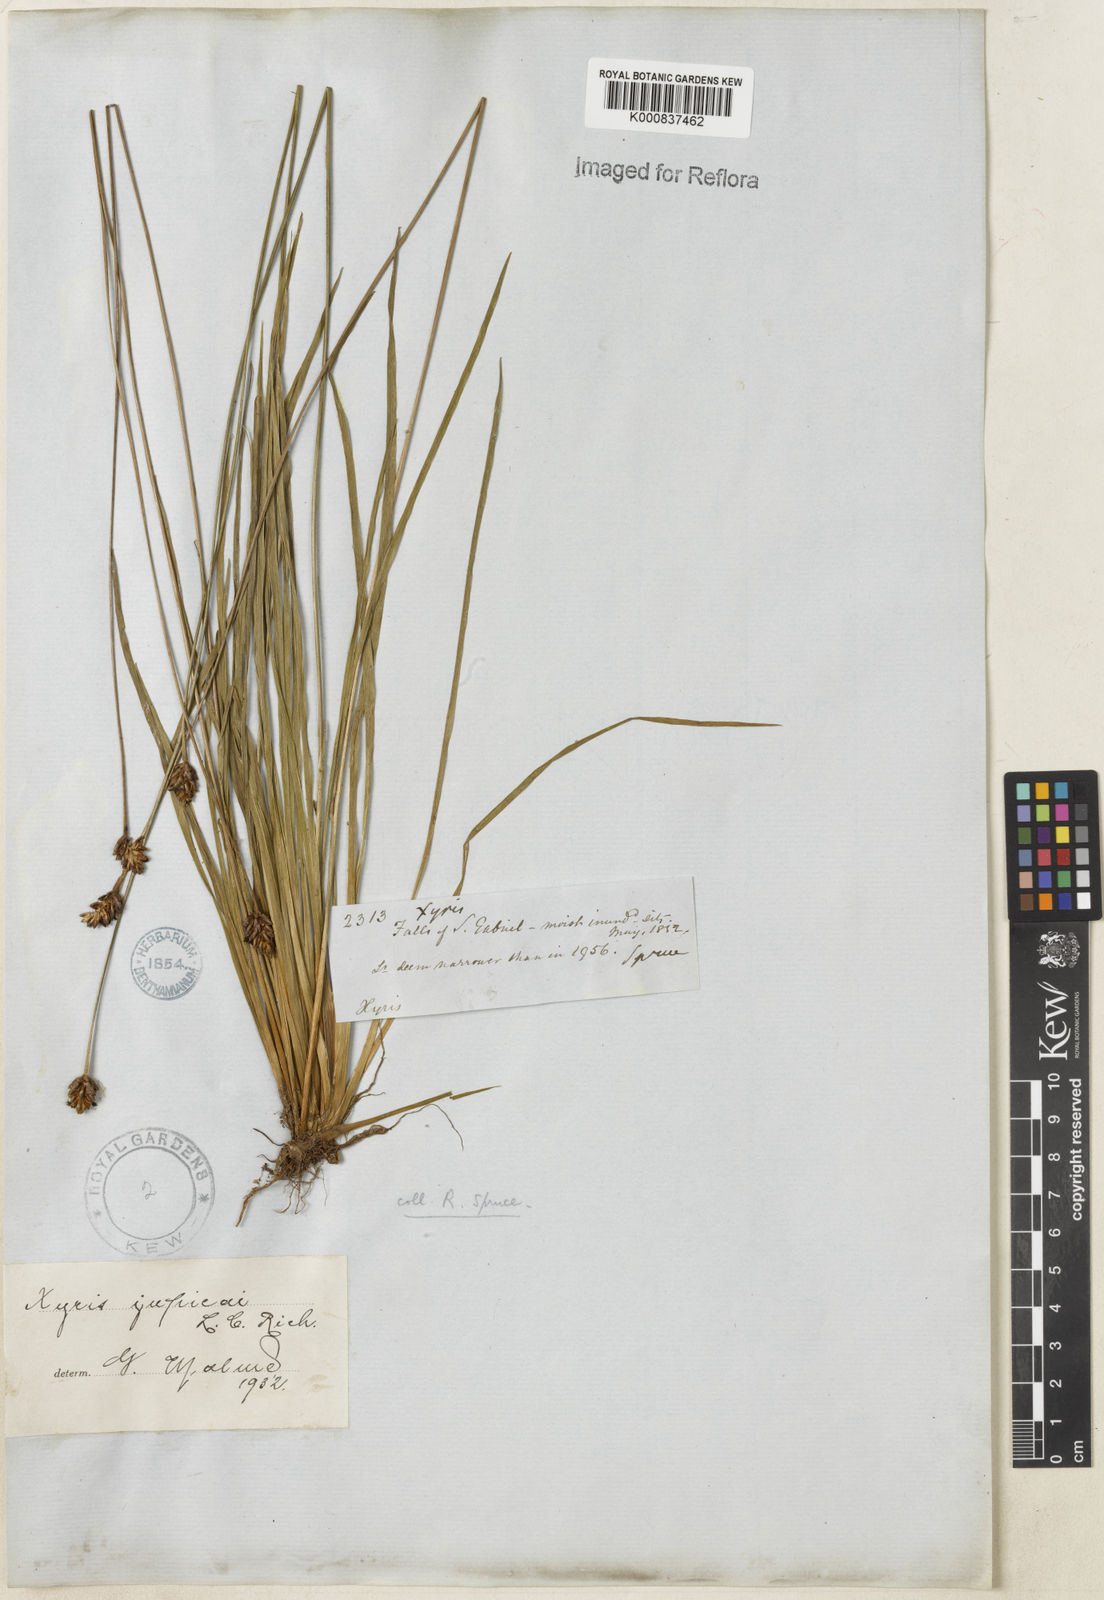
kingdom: Plantae
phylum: Tracheophyta
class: Liliopsida
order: Poales
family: Xyridaceae
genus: Xyris
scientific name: Xyris jupicai
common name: Richard's yelloweyed grass
